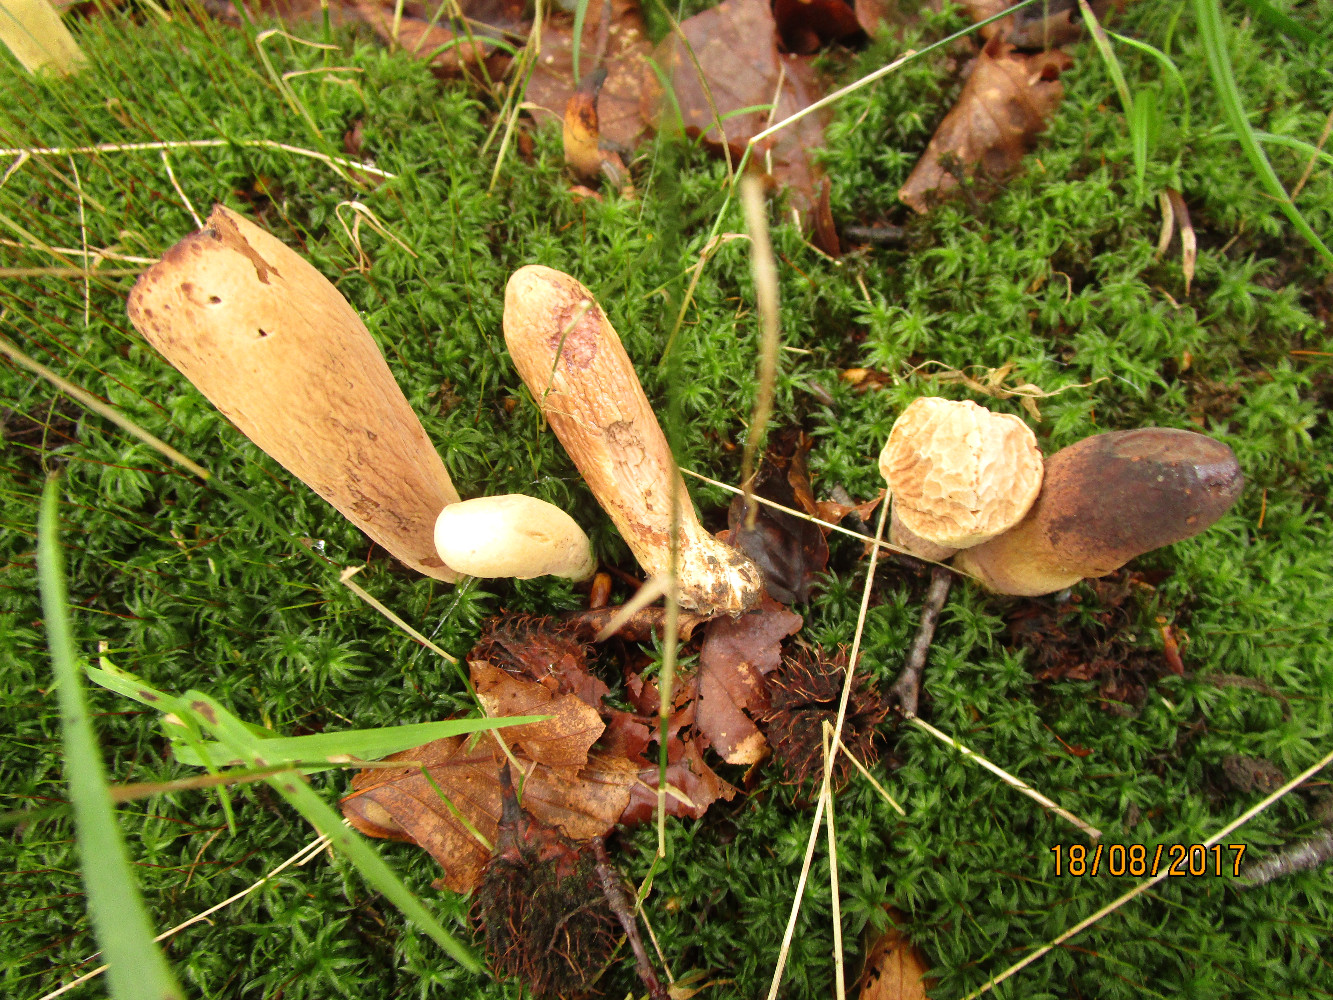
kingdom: Fungi
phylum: Basidiomycota
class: Agaricomycetes
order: Gomphales
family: Clavariadelphaceae
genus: Clavariadelphus
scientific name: Clavariadelphus pistillaris
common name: herkules-kæmpekølle
